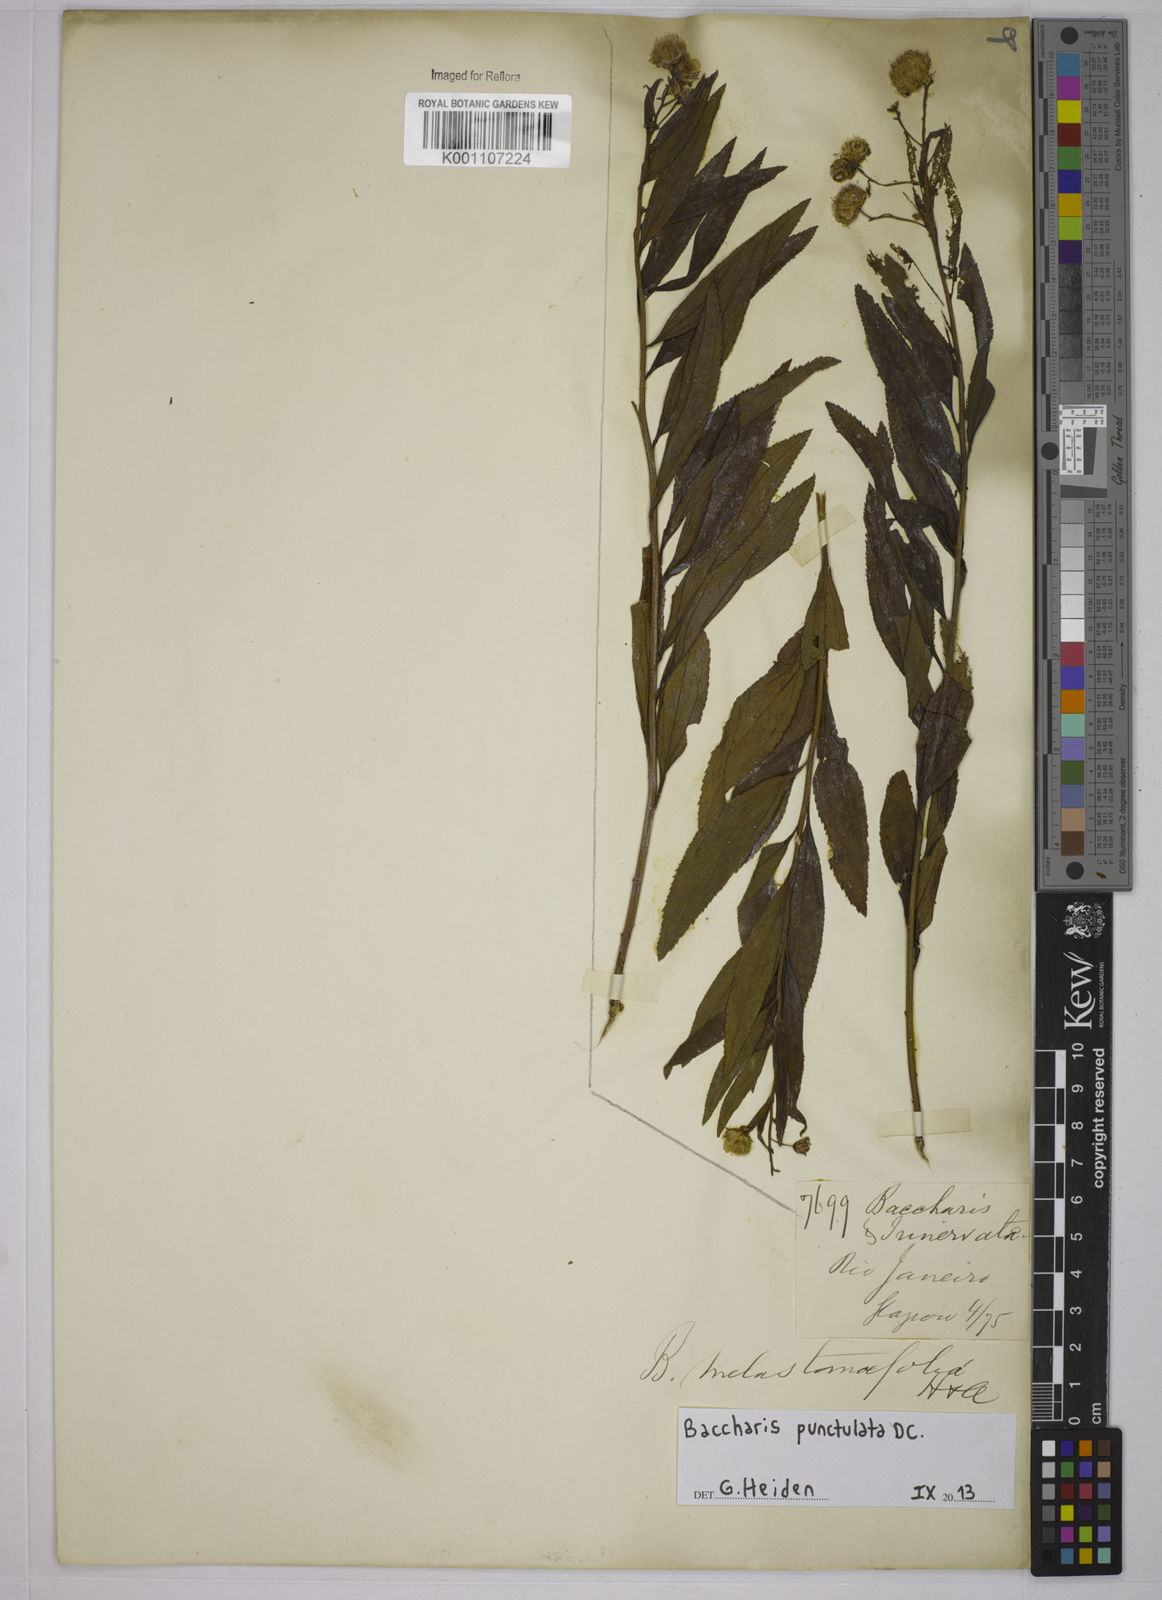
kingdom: Plantae
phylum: Tracheophyta
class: Magnoliopsida
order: Asterales
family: Asteraceae
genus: Baccharis
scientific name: Baccharis punctulata
